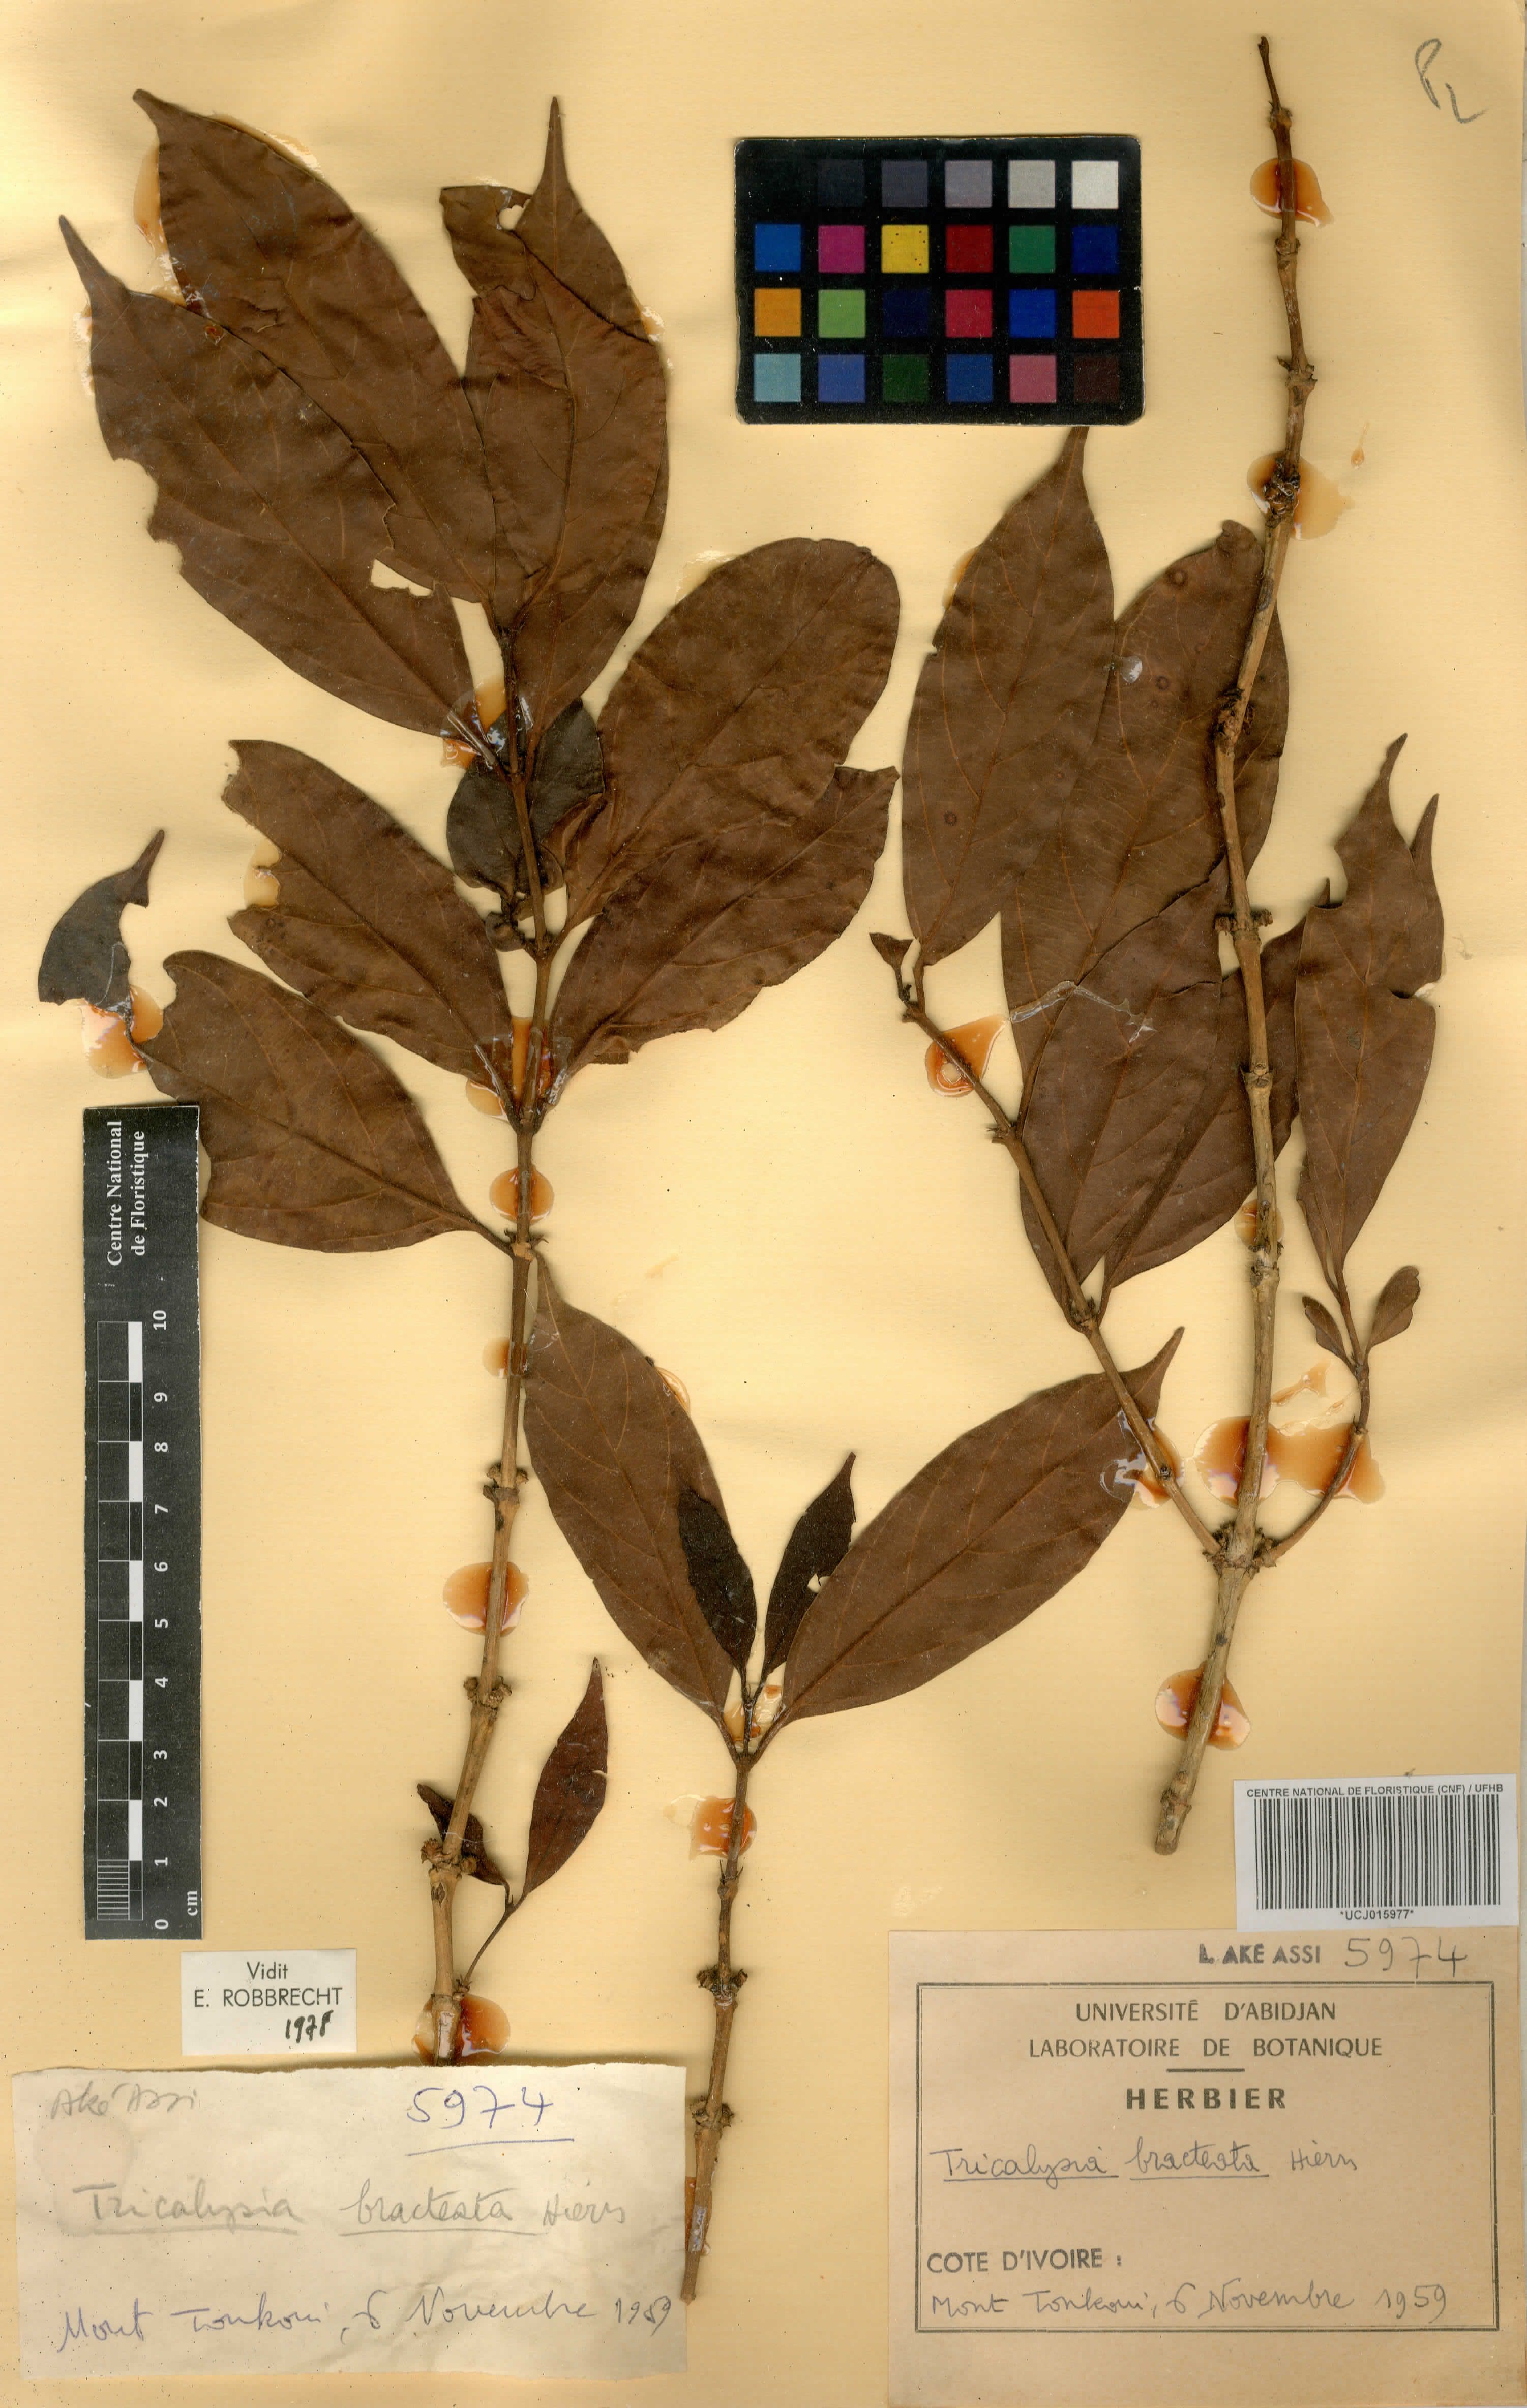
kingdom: Plantae
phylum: Tracheophyta
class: Magnoliopsida
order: Gentianales
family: Rubiaceae
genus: Empogona
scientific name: Empogona bracteata
